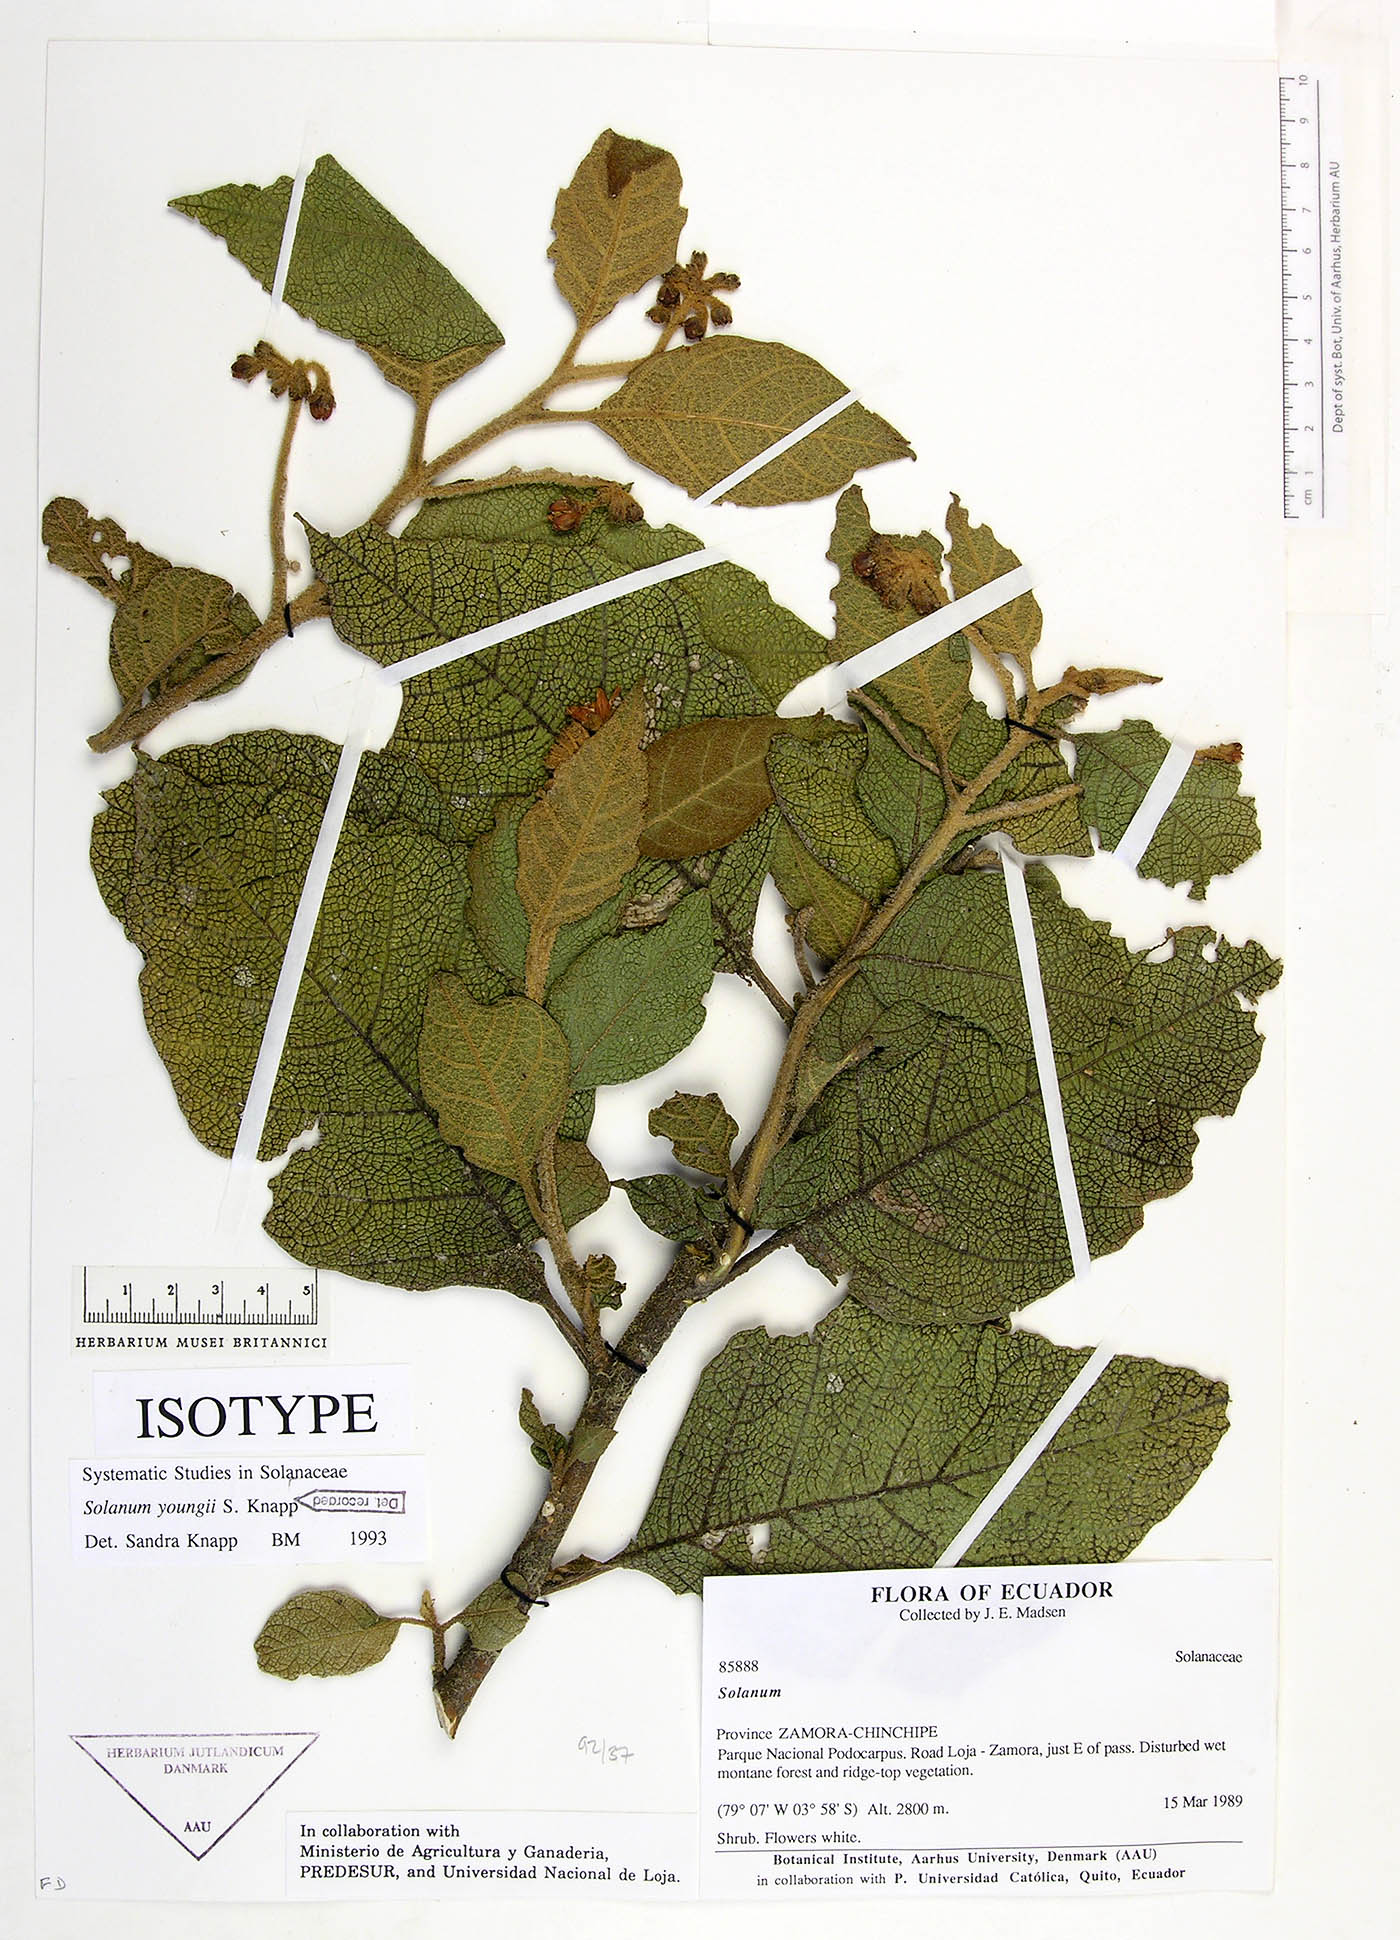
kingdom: Plantae
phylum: Tracheophyta
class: Magnoliopsida
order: Solanales
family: Solanaceae
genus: Solanum
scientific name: Solanum youngii
